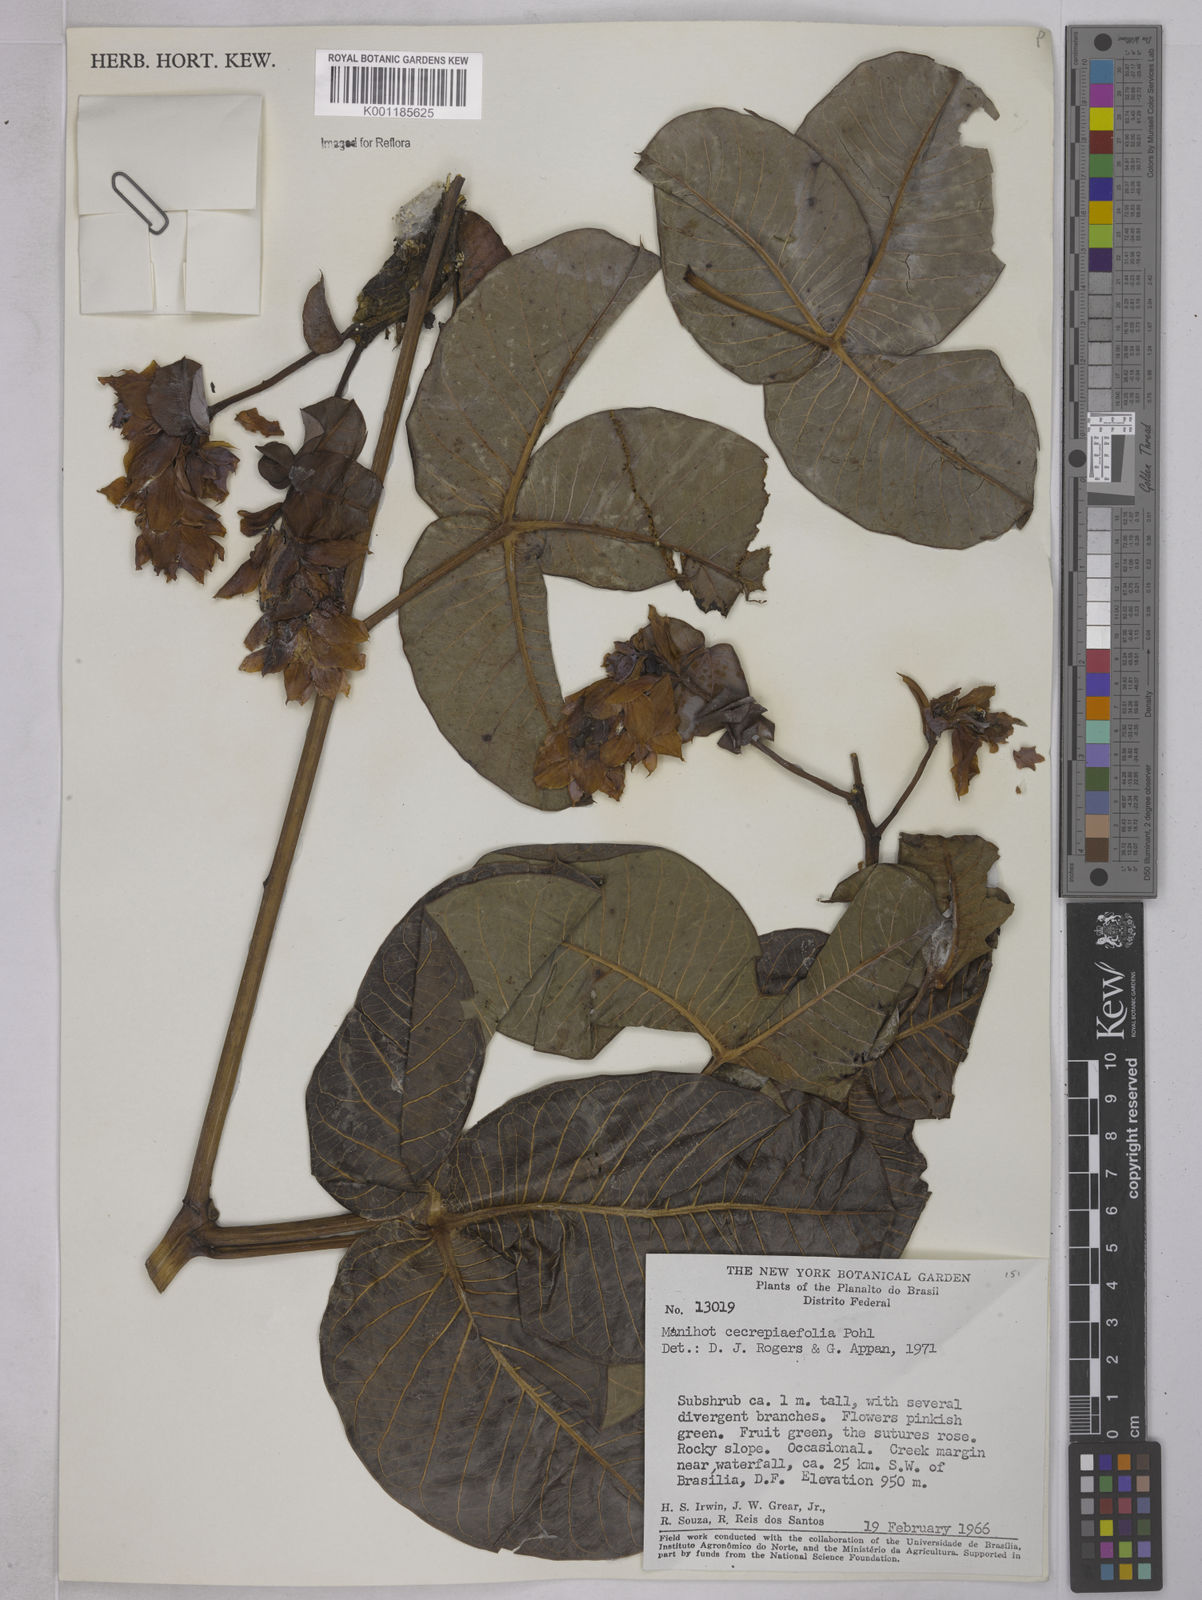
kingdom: Plantae
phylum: Tracheophyta
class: Magnoliopsida
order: Malpighiales
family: Euphorbiaceae
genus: Manihot
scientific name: Manihot cecropiifolia
